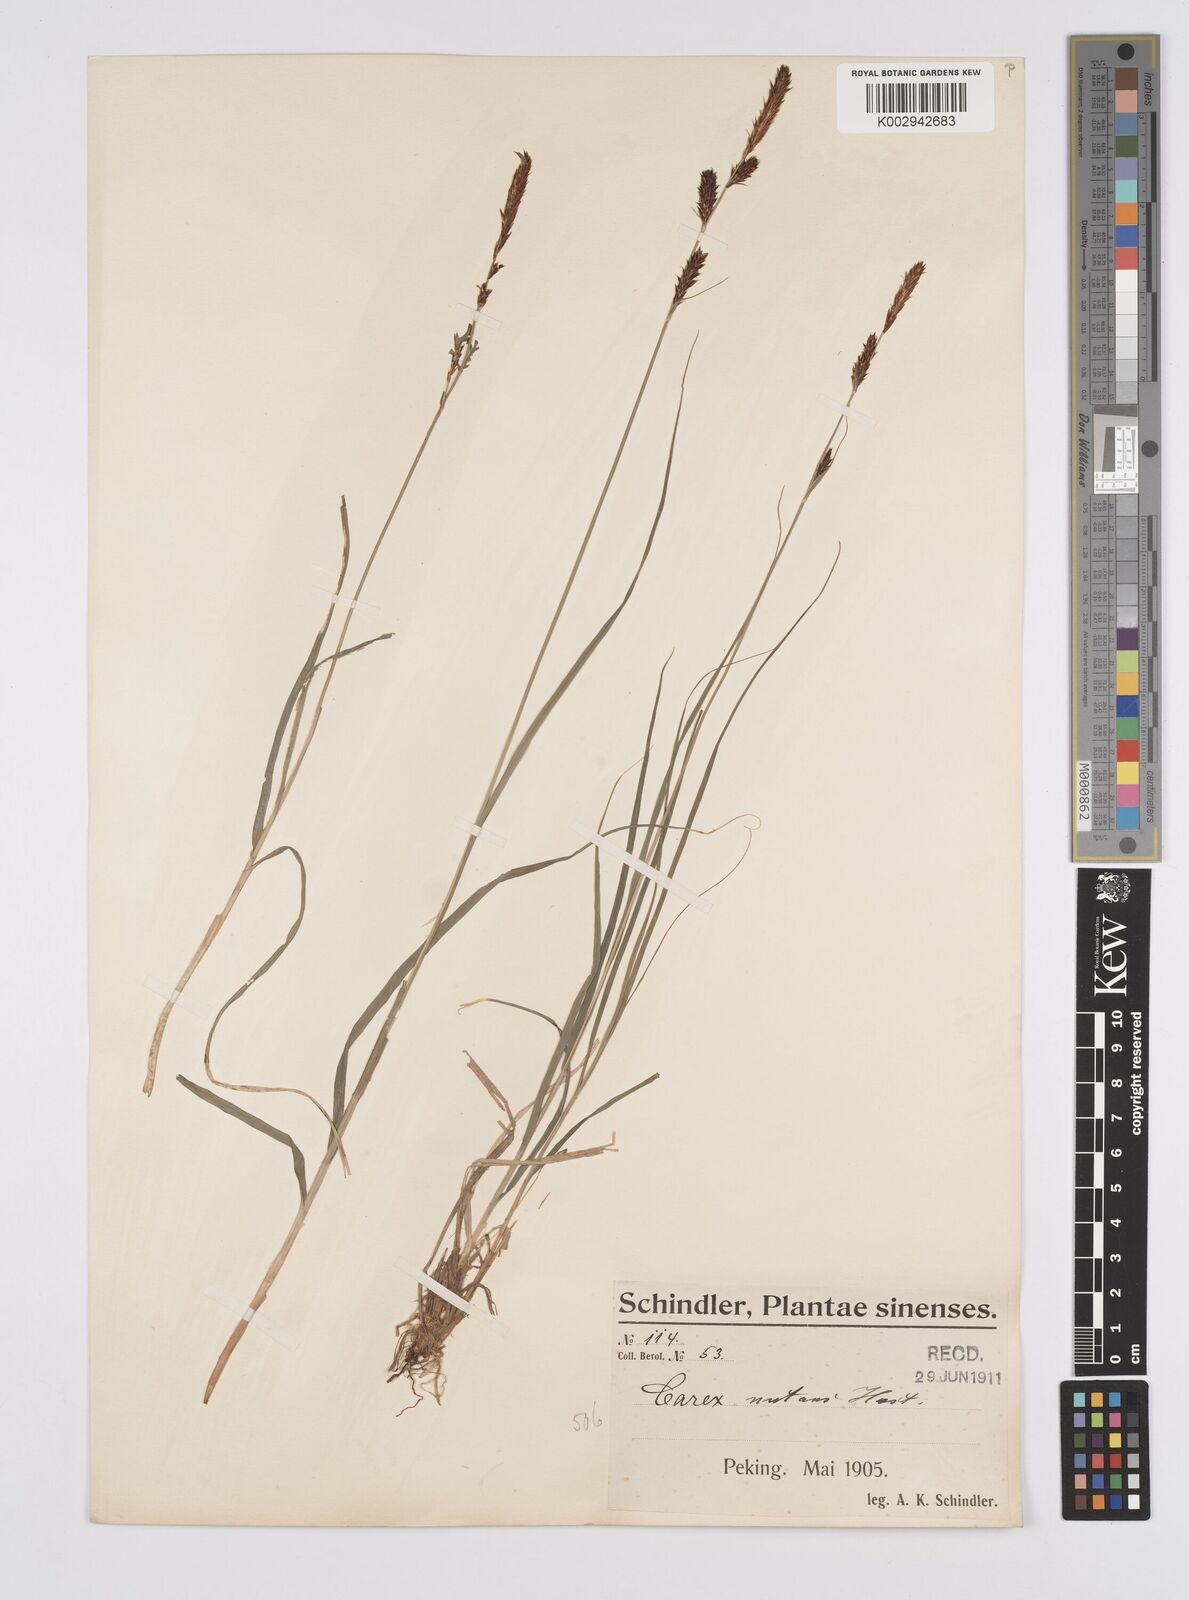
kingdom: Plantae
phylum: Tracheophyta
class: Liliopsida
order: Poales
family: Cyperaceae
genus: Carex
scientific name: Carex melanostachya
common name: Black-spiked sedge
